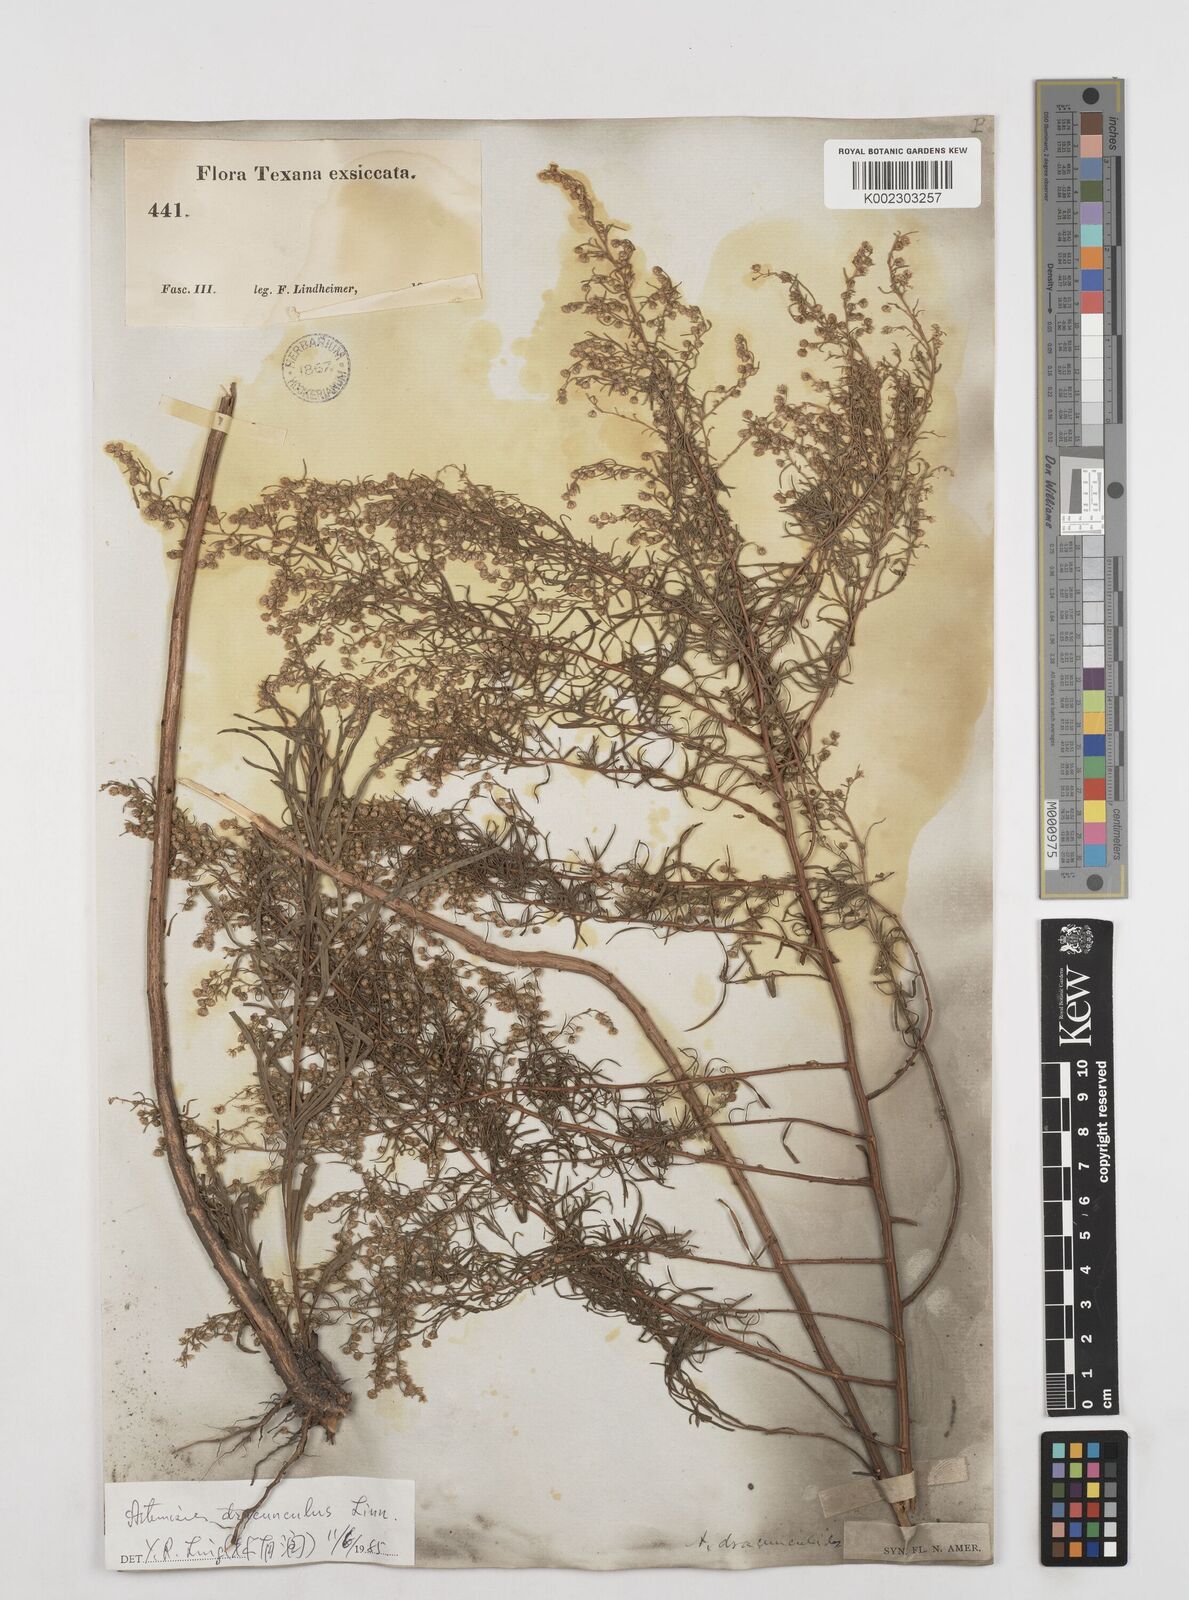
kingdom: Plantae
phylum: Tracheophyta
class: Magnoliopsida
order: Asterales
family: Asteraceae
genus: Artemisia
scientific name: Artemisia dracunculus
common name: Tarragon
